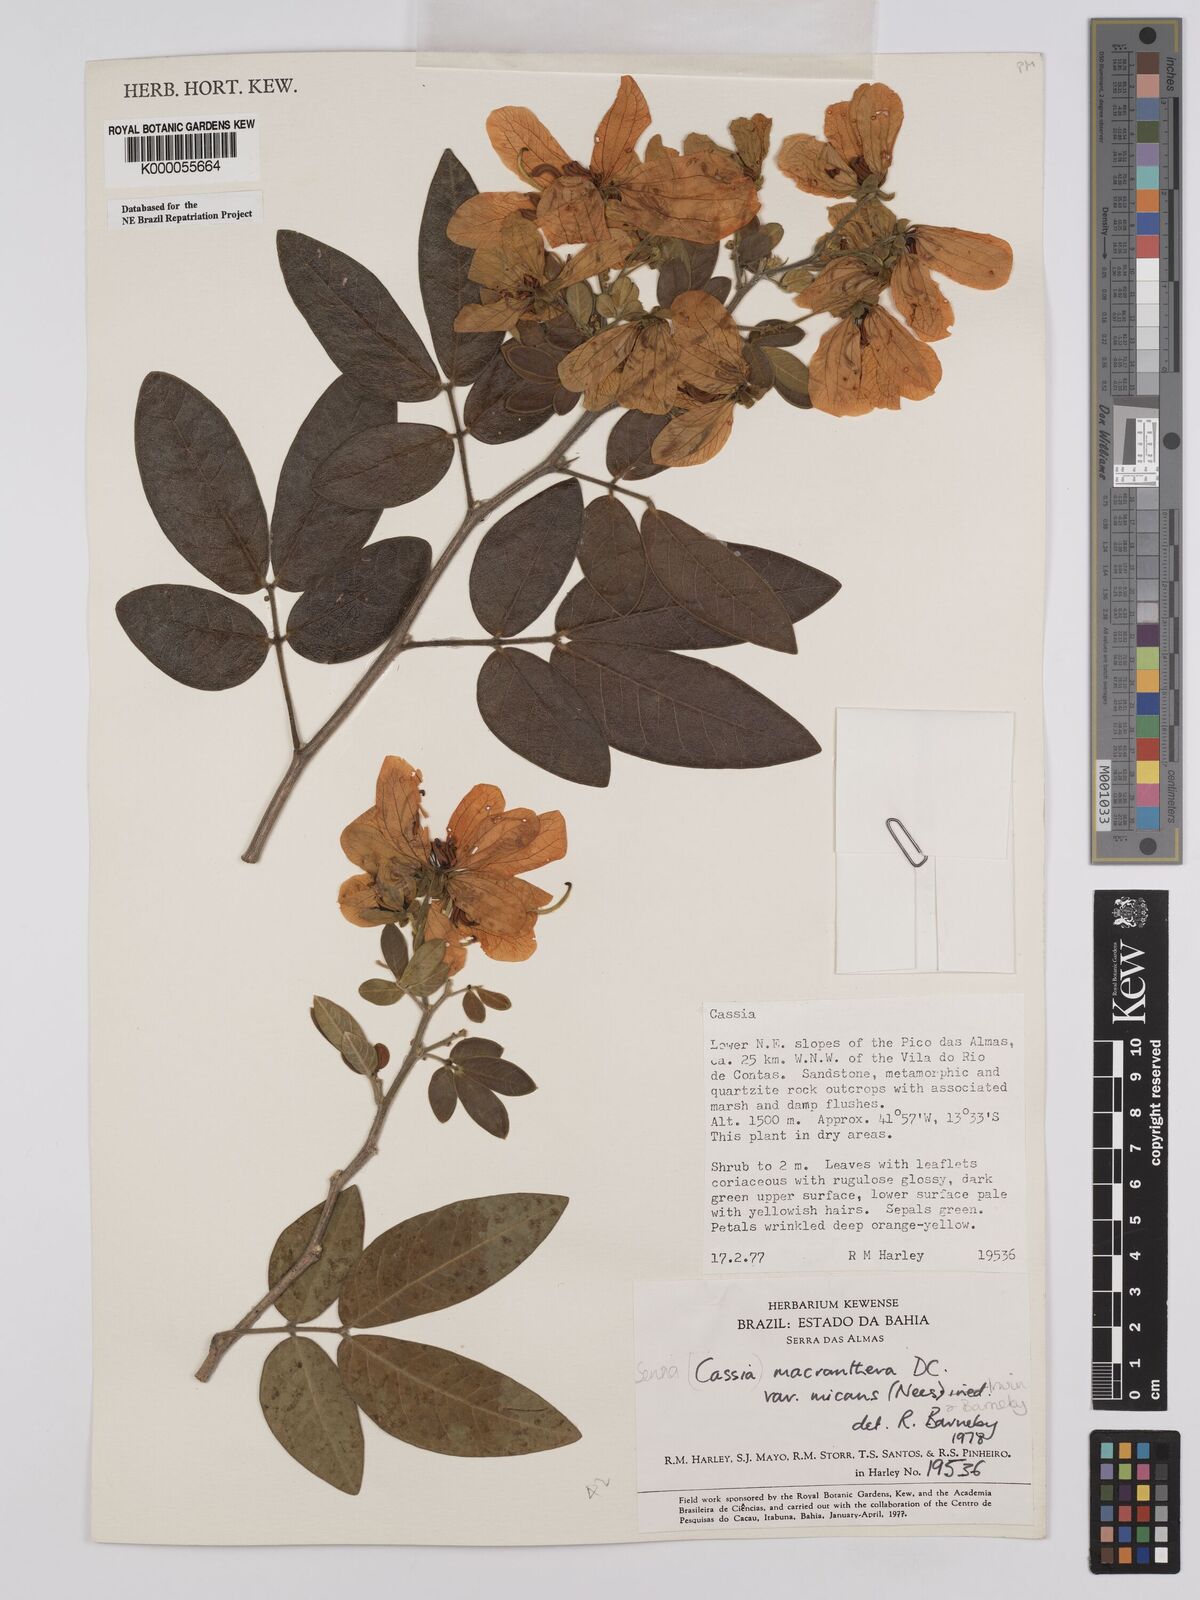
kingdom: Plantae
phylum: Tracheophyta
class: Magnoliopsida
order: Fabales
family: Fabaceae
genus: Senna
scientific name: Senna macranthera
